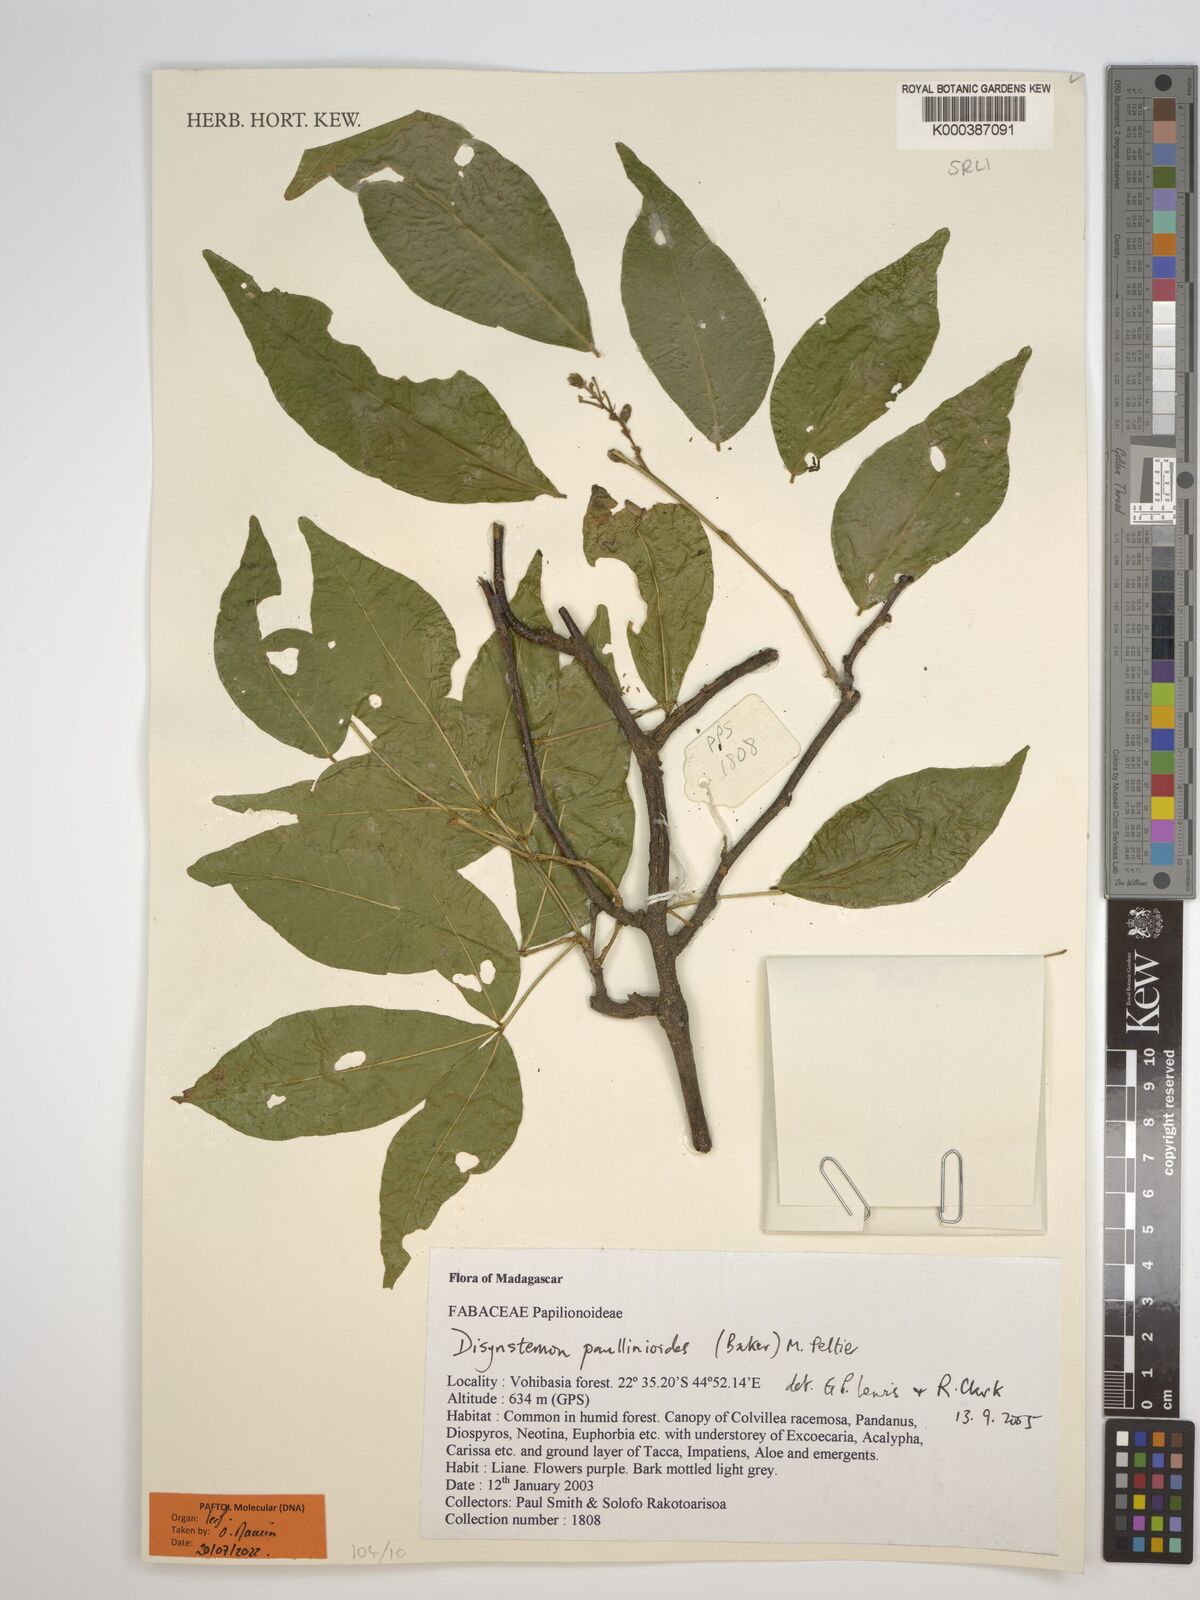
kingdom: Plantae
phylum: Tracheophyta
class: Magnoliopsida
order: Fabales
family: Fabaceae
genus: Disynstemon
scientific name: Disynstemon paullinioides
